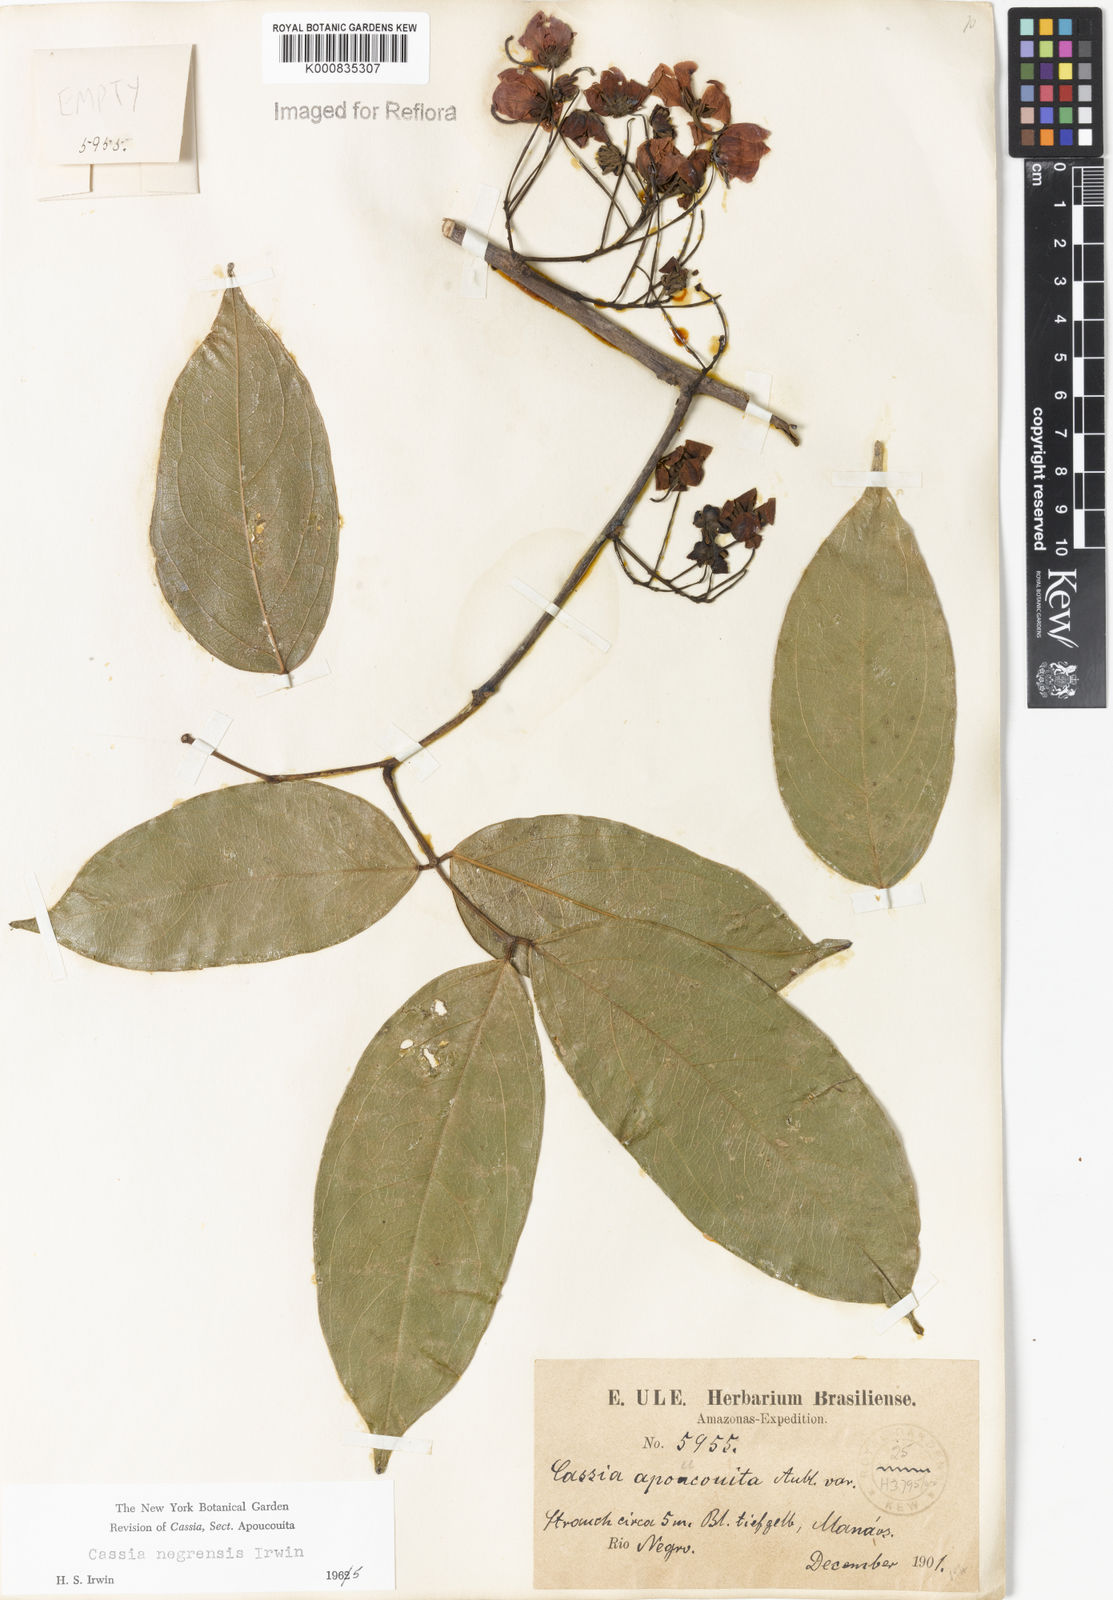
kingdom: Plantae
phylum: Tracheophyta
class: Magnoliopsida
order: Fabales
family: Fabaceae
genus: Chamaecrista
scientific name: Chamaecrista negrensis
